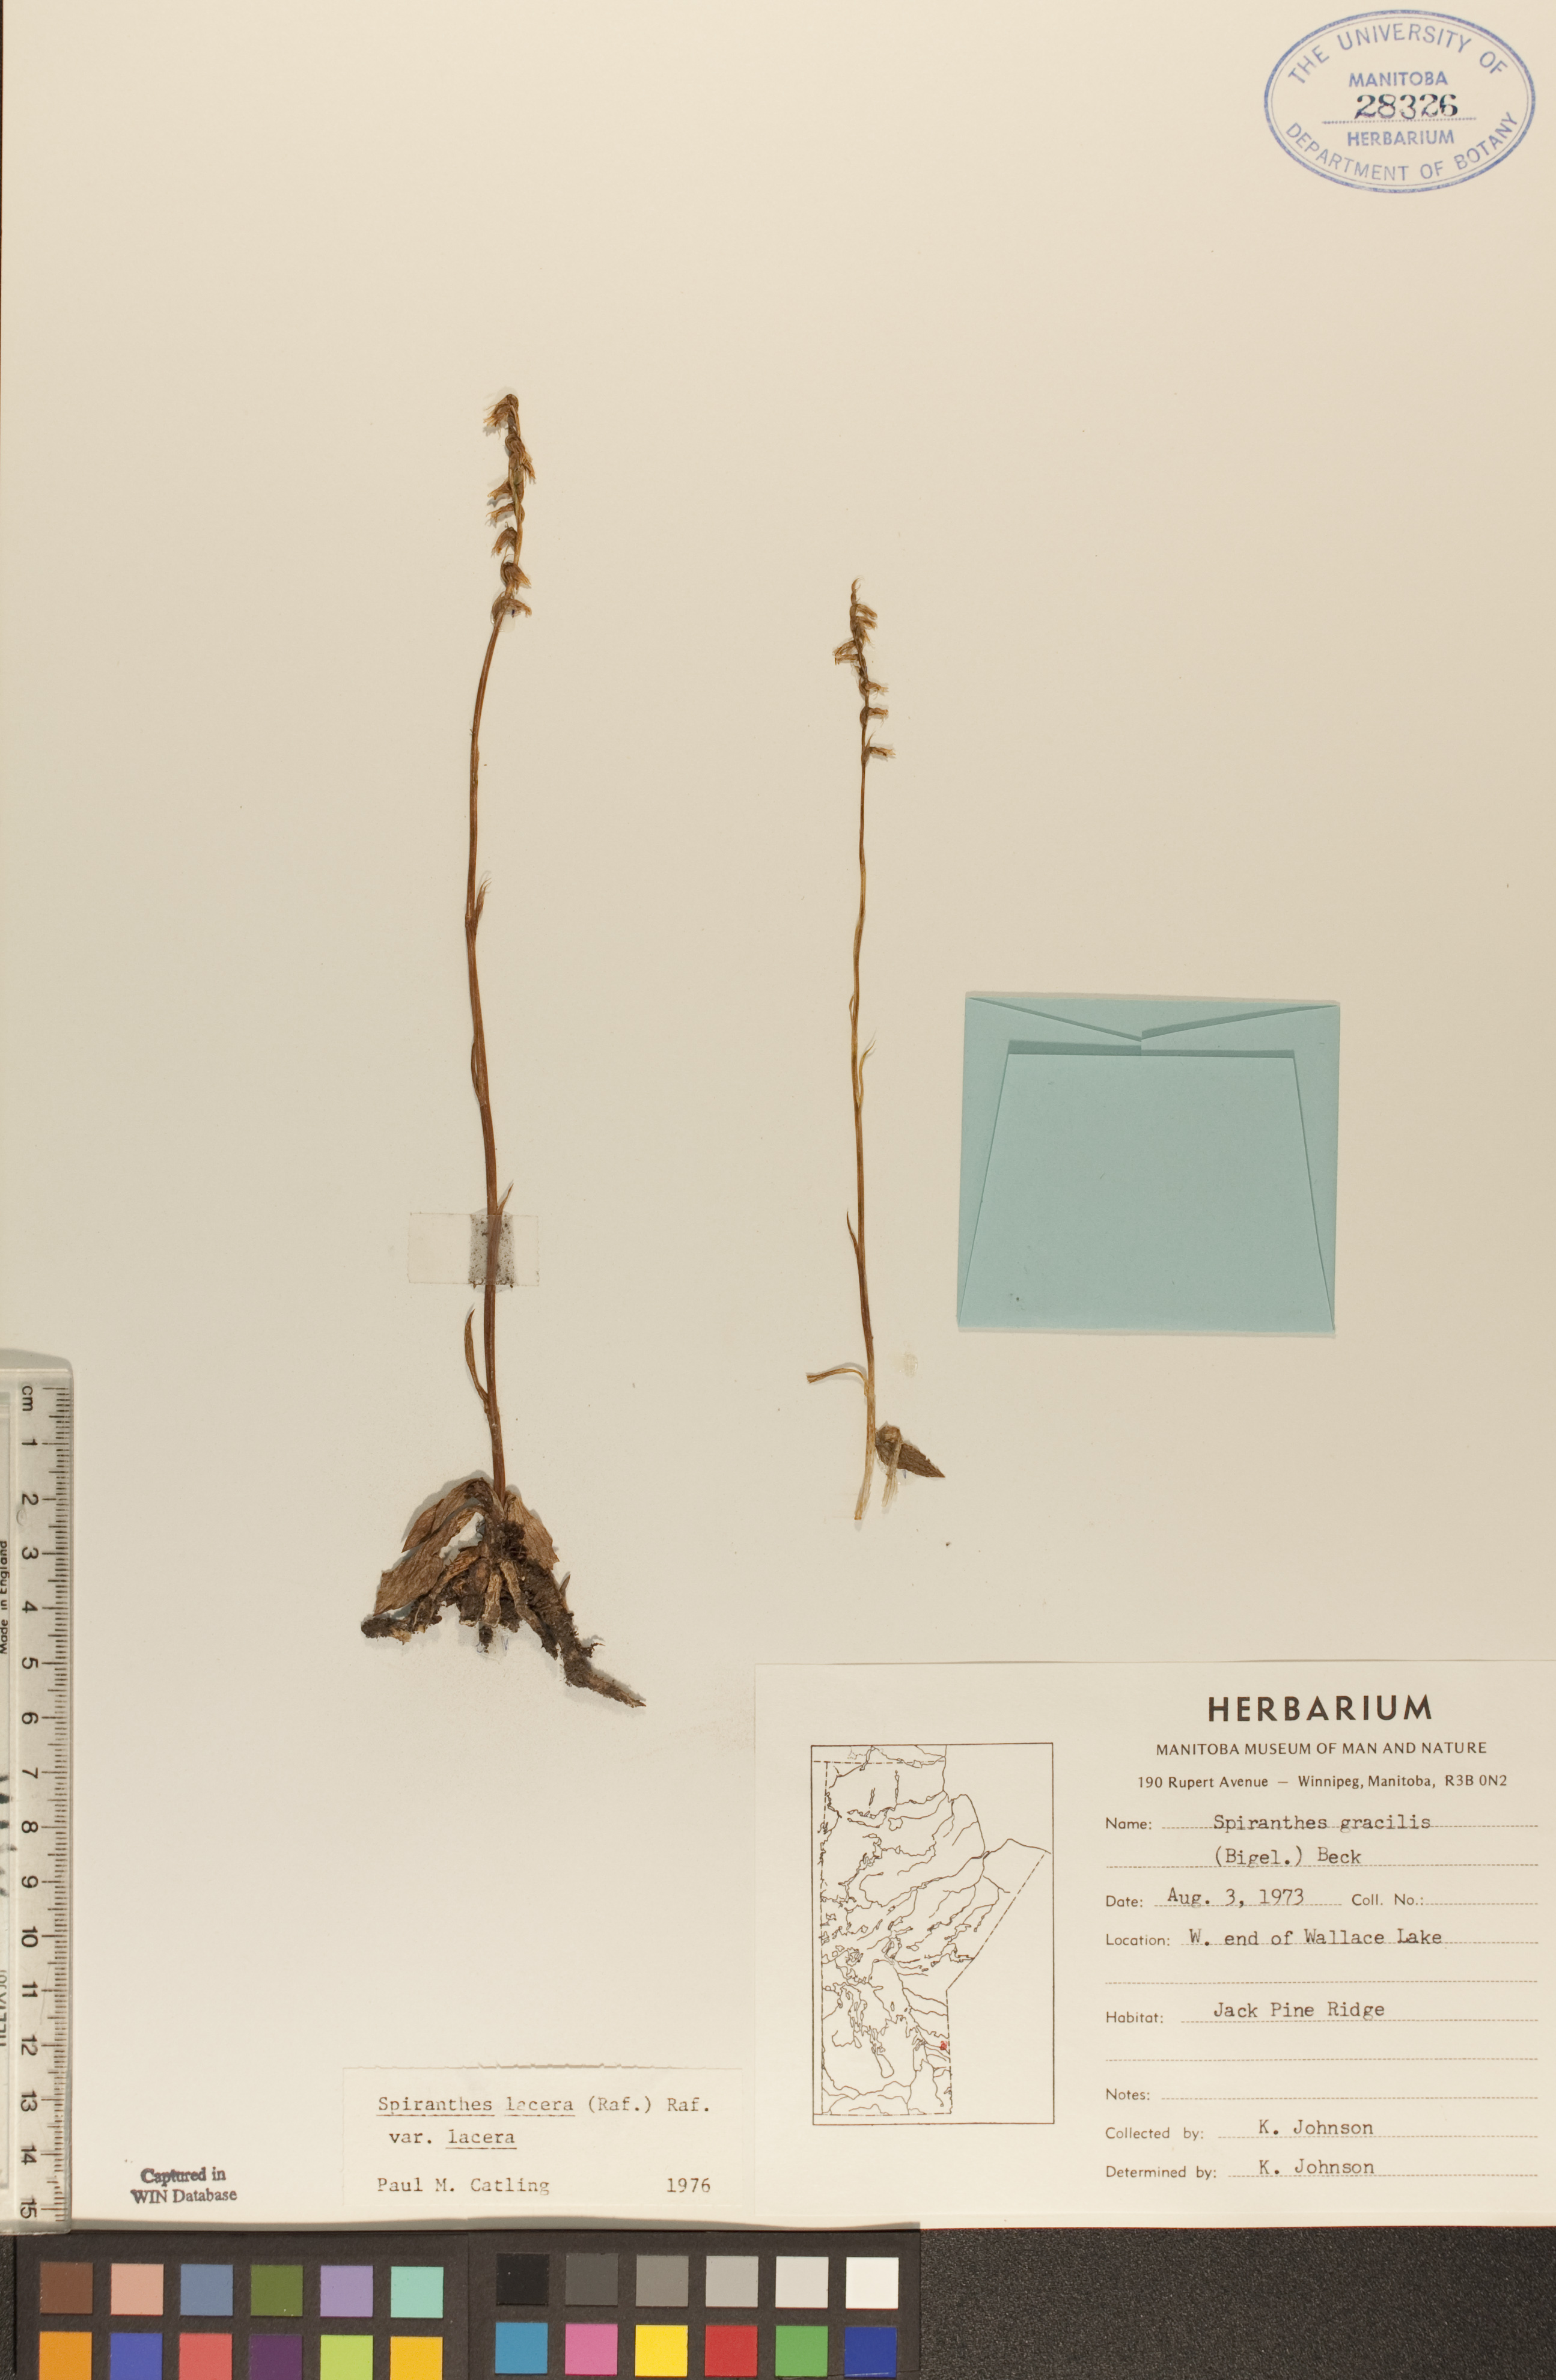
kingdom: Plantae
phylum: Tracheophyta
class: Liliopsida
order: Asparagales
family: Orchidaceae
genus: Spiranthes
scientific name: Spiranthes lacera
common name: Northern slender ladies'-tresses
